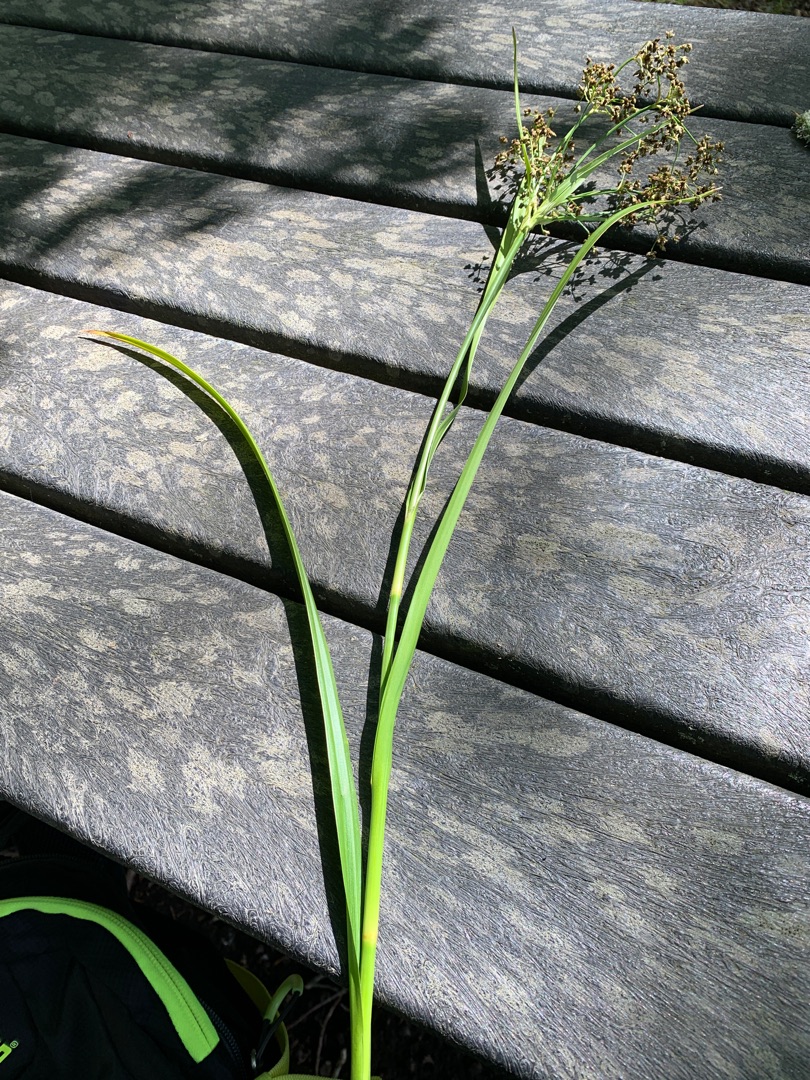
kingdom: Plantae
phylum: Tracheophyta
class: Liliopsida
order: Poales
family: Cyperaceae
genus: Scirpus
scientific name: Scirpus sylvaticus
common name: Skov-kogleaks
